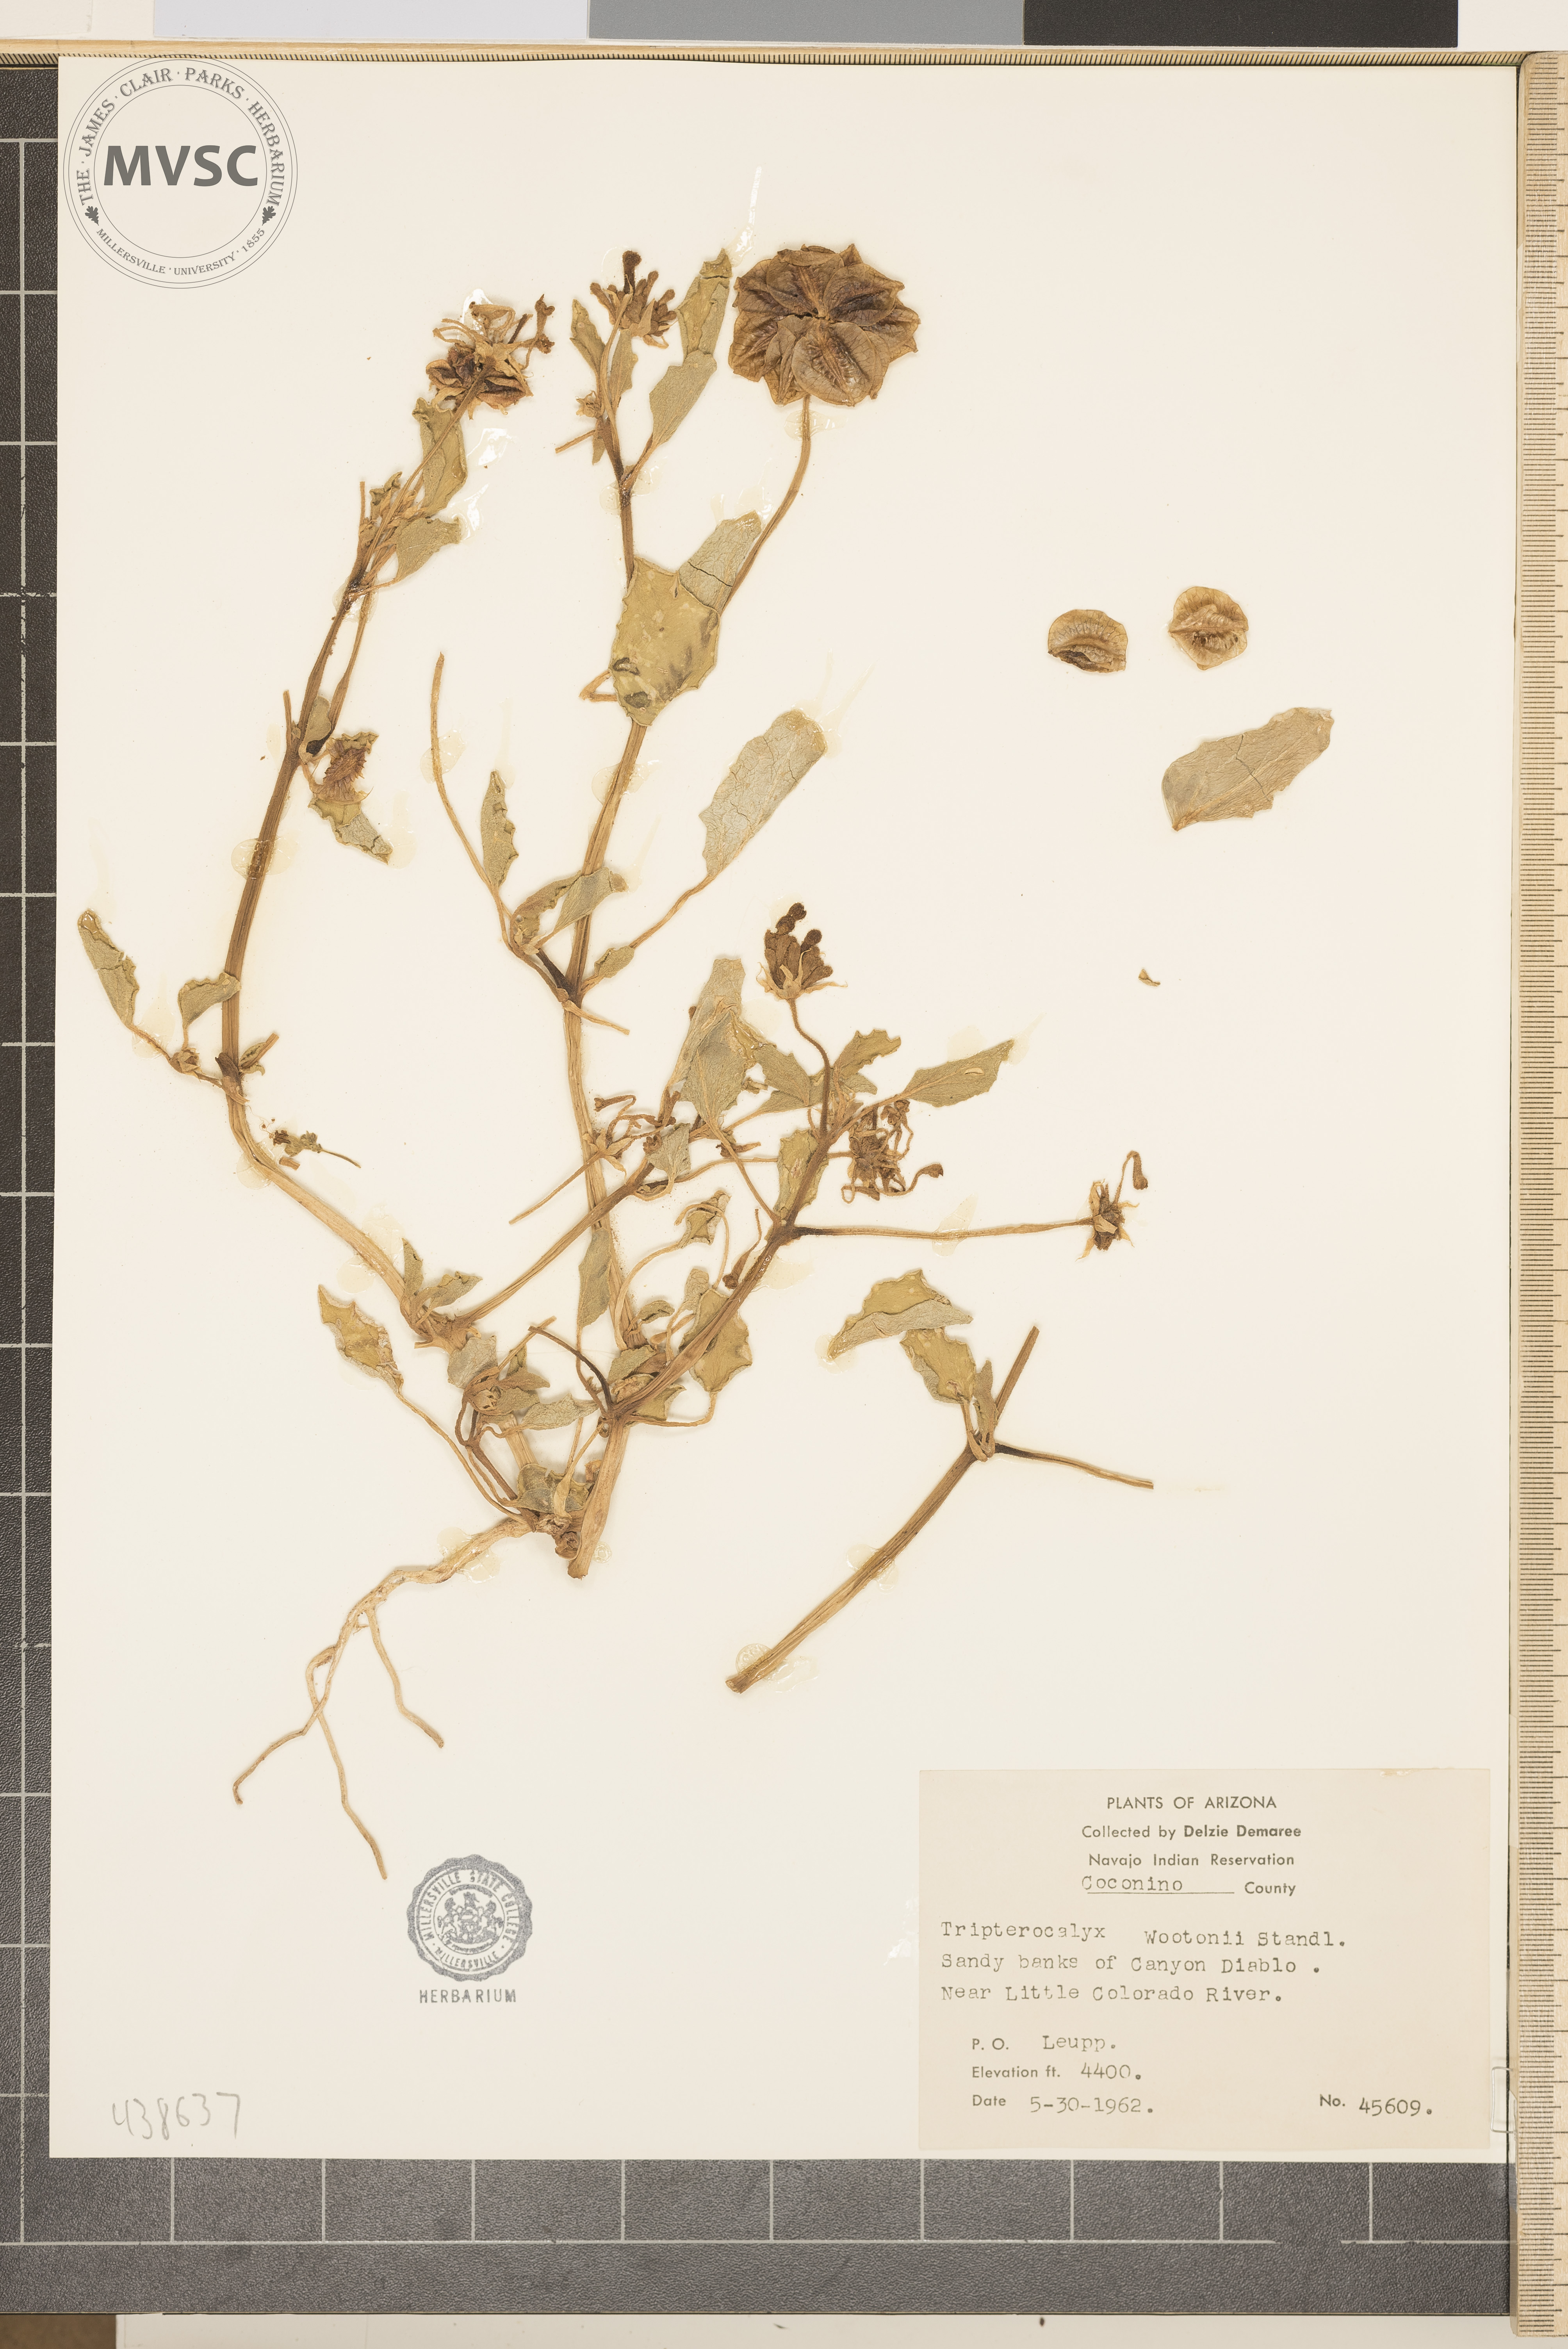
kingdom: Plantae
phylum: Tracheophyta
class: Magnoliopsida
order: Caryophyllales
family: Nyctaginaceae
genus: Tripterocalyx
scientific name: Tripterocalyx wootonii
